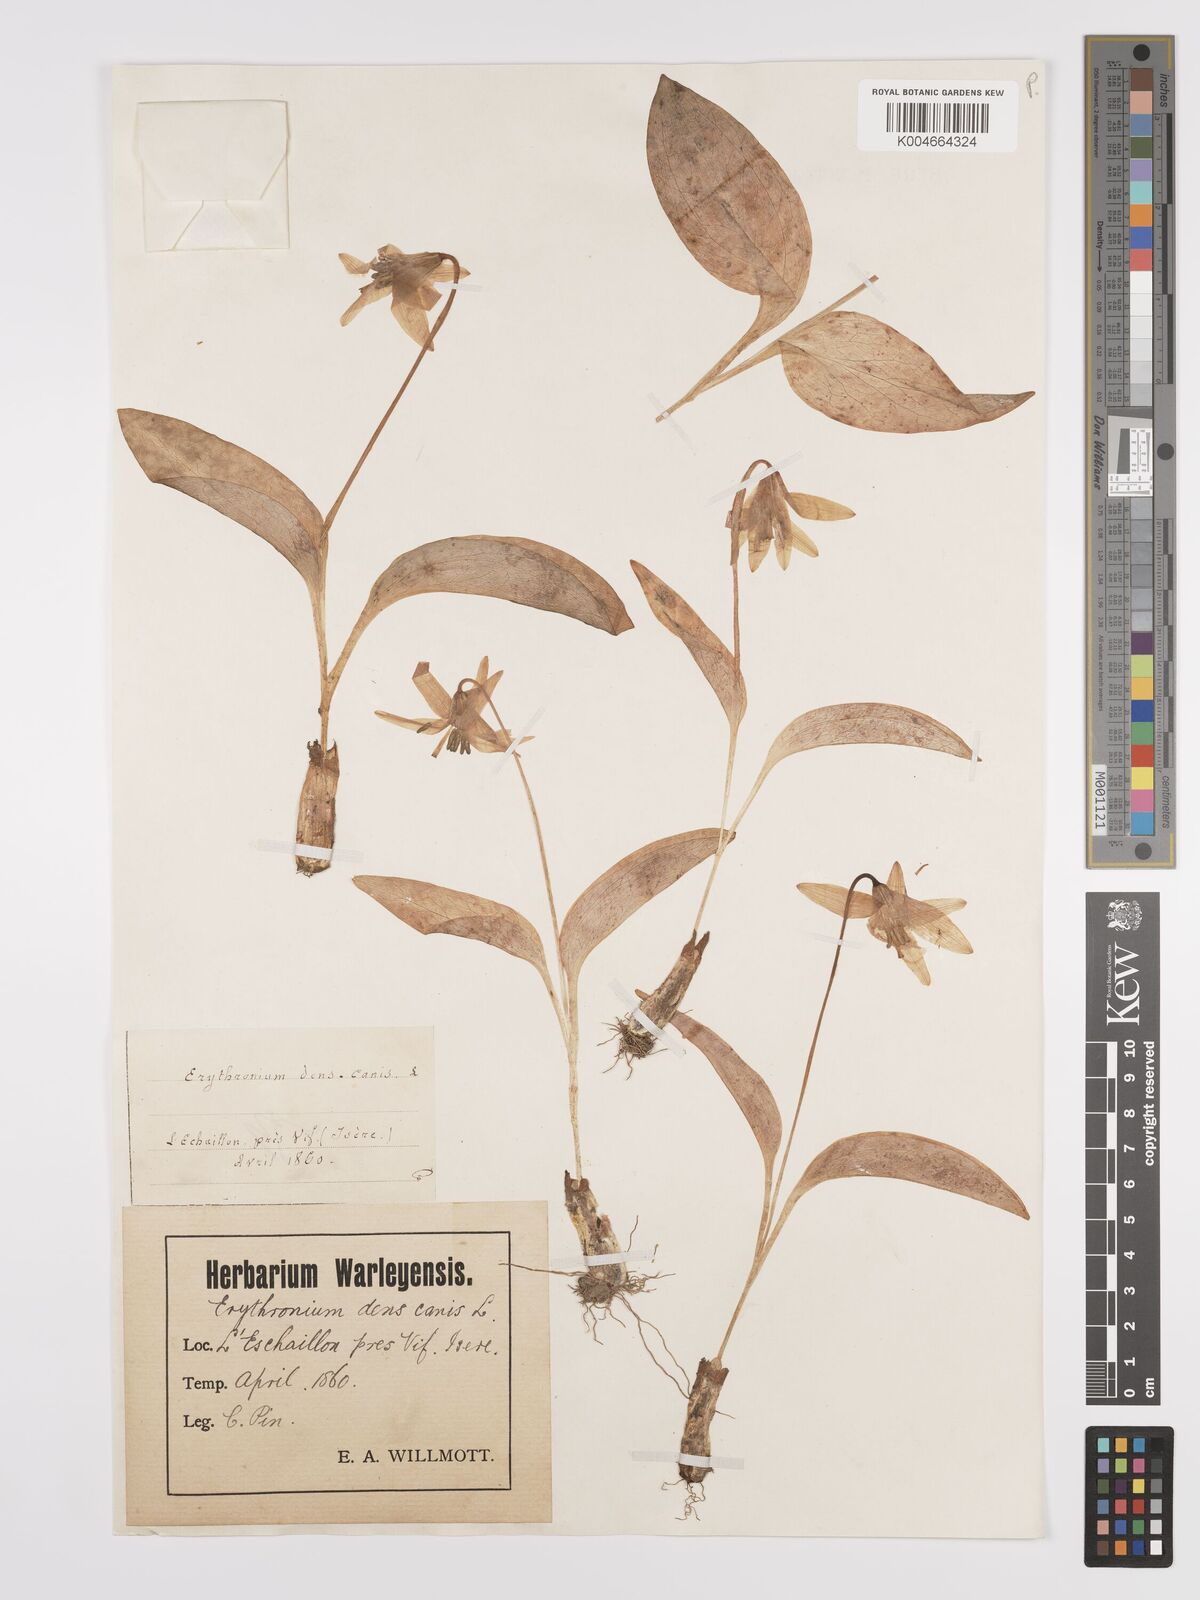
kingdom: Plantae
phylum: Tracheophyta
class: Liliopsida
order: Liliales
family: Liliaceae
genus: Erythronium
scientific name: Erythronium dens-canis
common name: Dog's-tooth-violet
